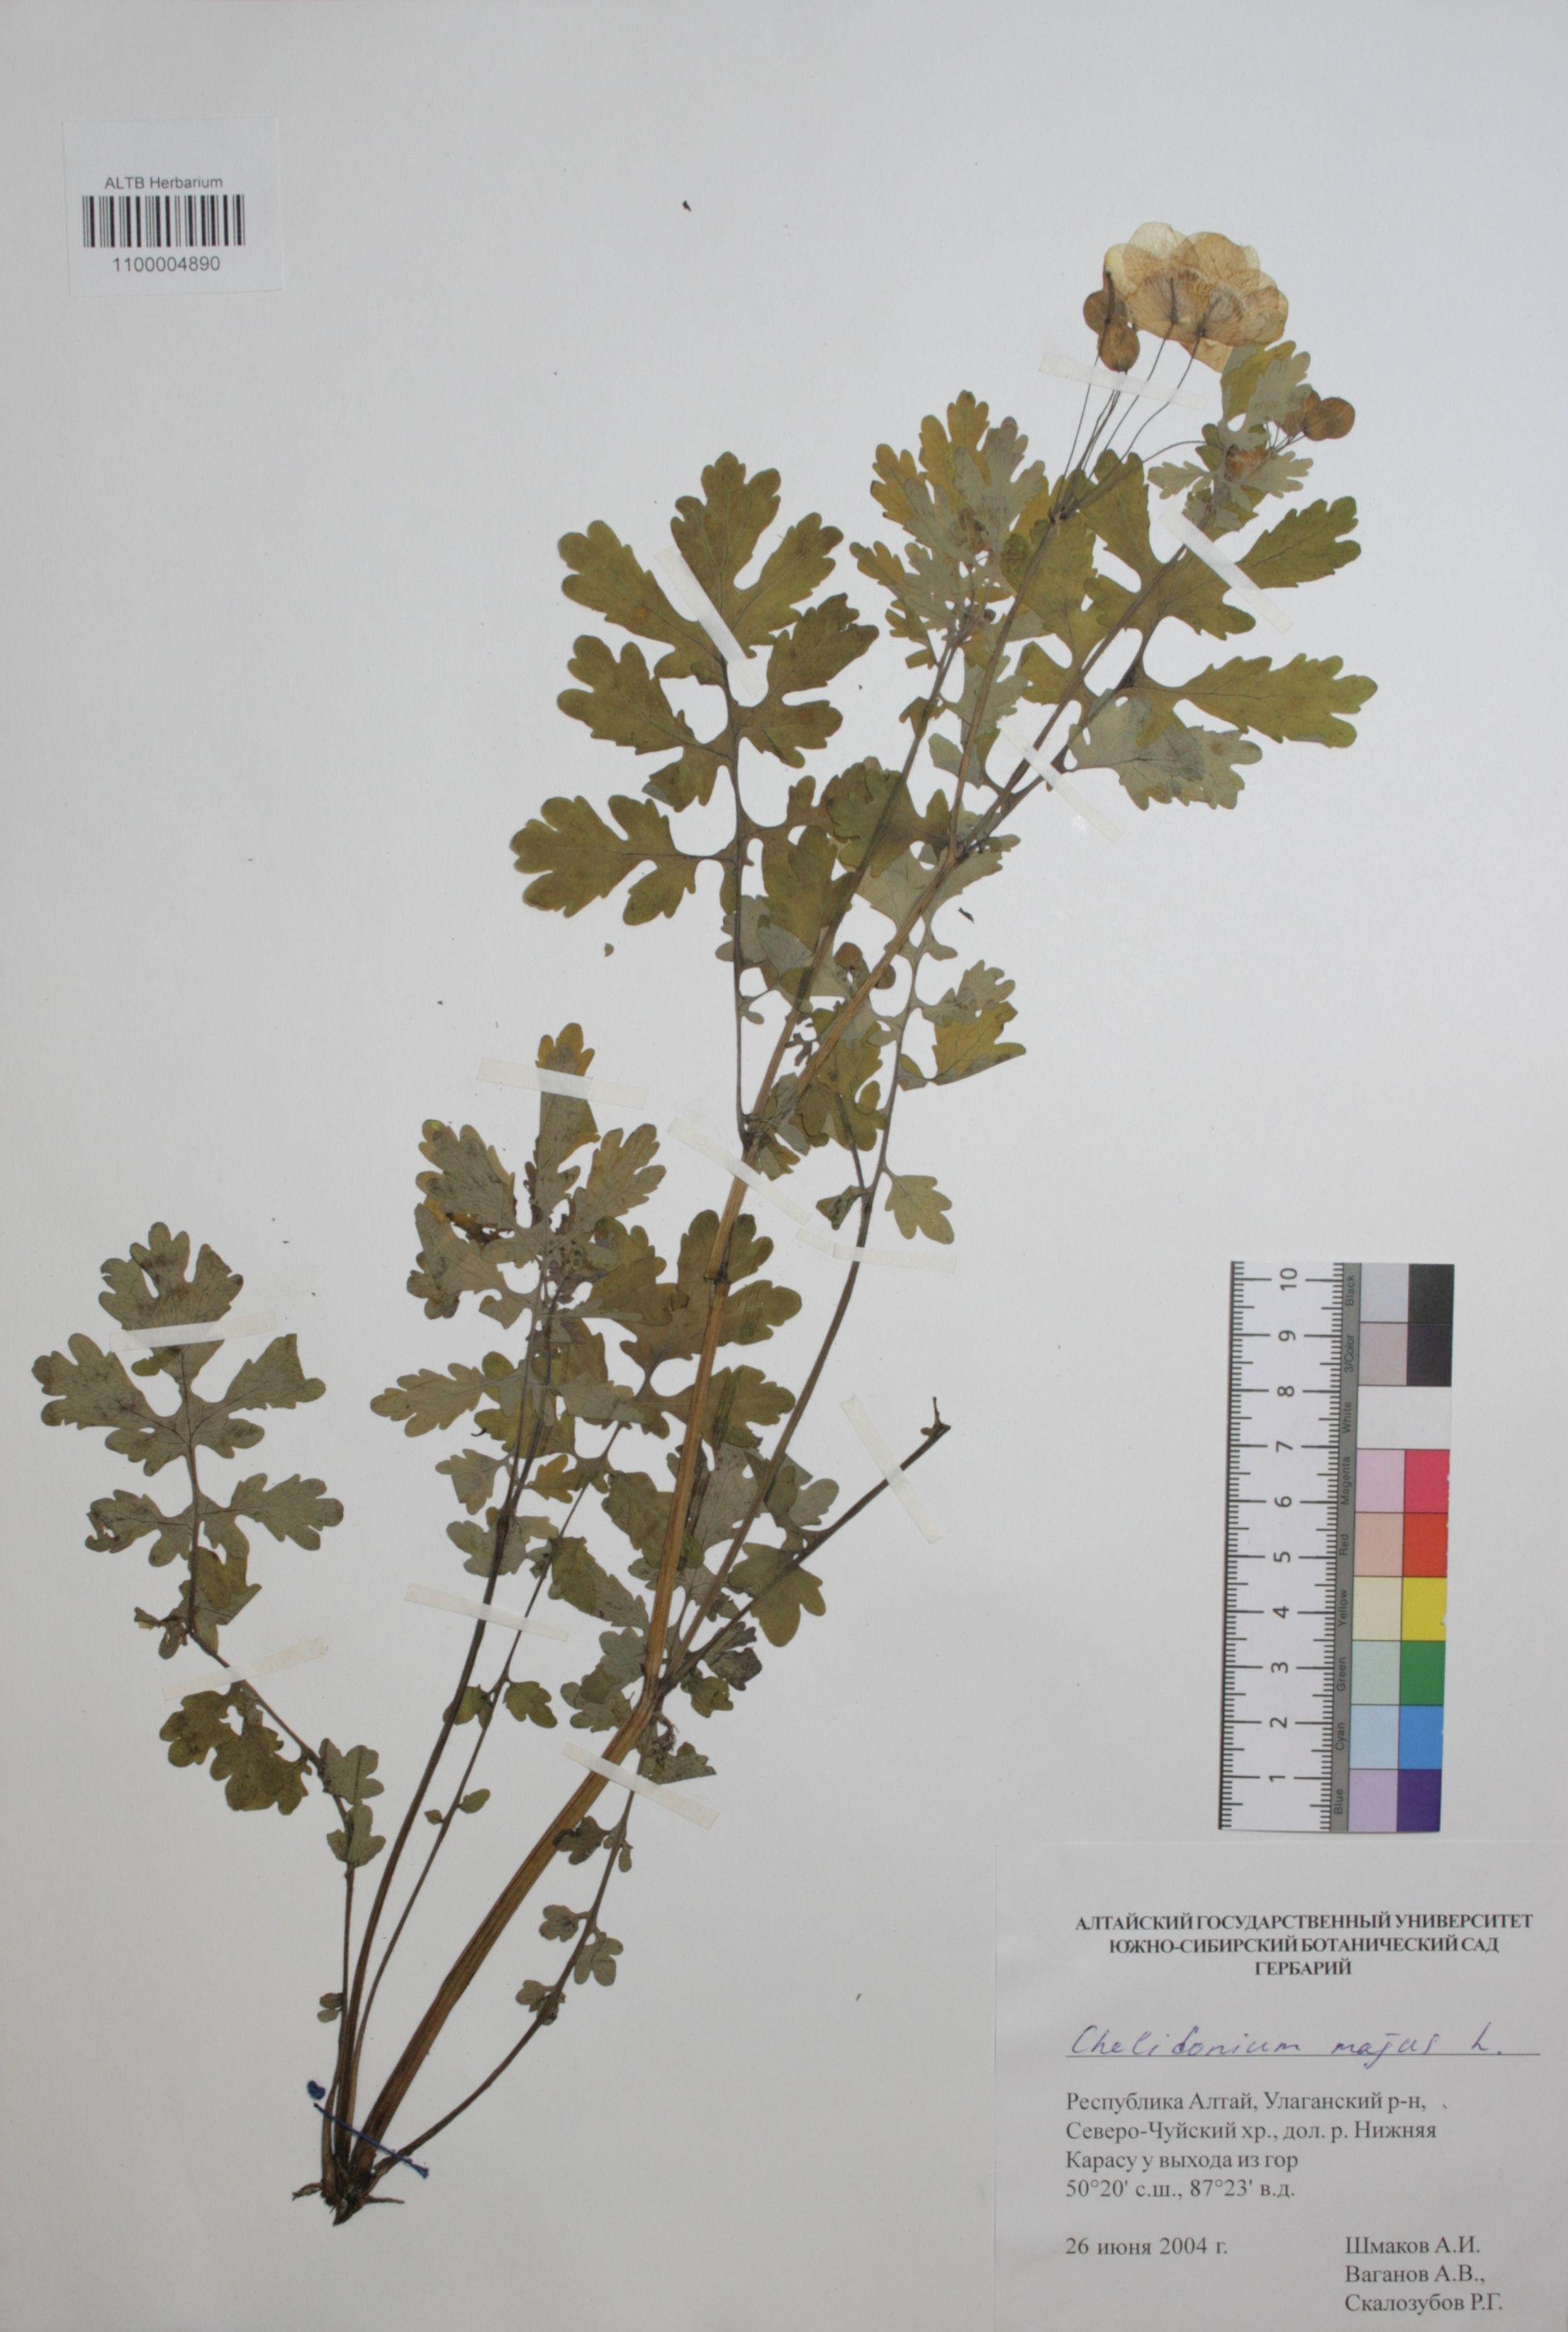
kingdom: Plantae
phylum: Tracheophyta
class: Magnoliopsida
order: Ranunculales
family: Papaveraceae
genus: Chelidonium
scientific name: Chelidonium majus
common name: Greater celandine
